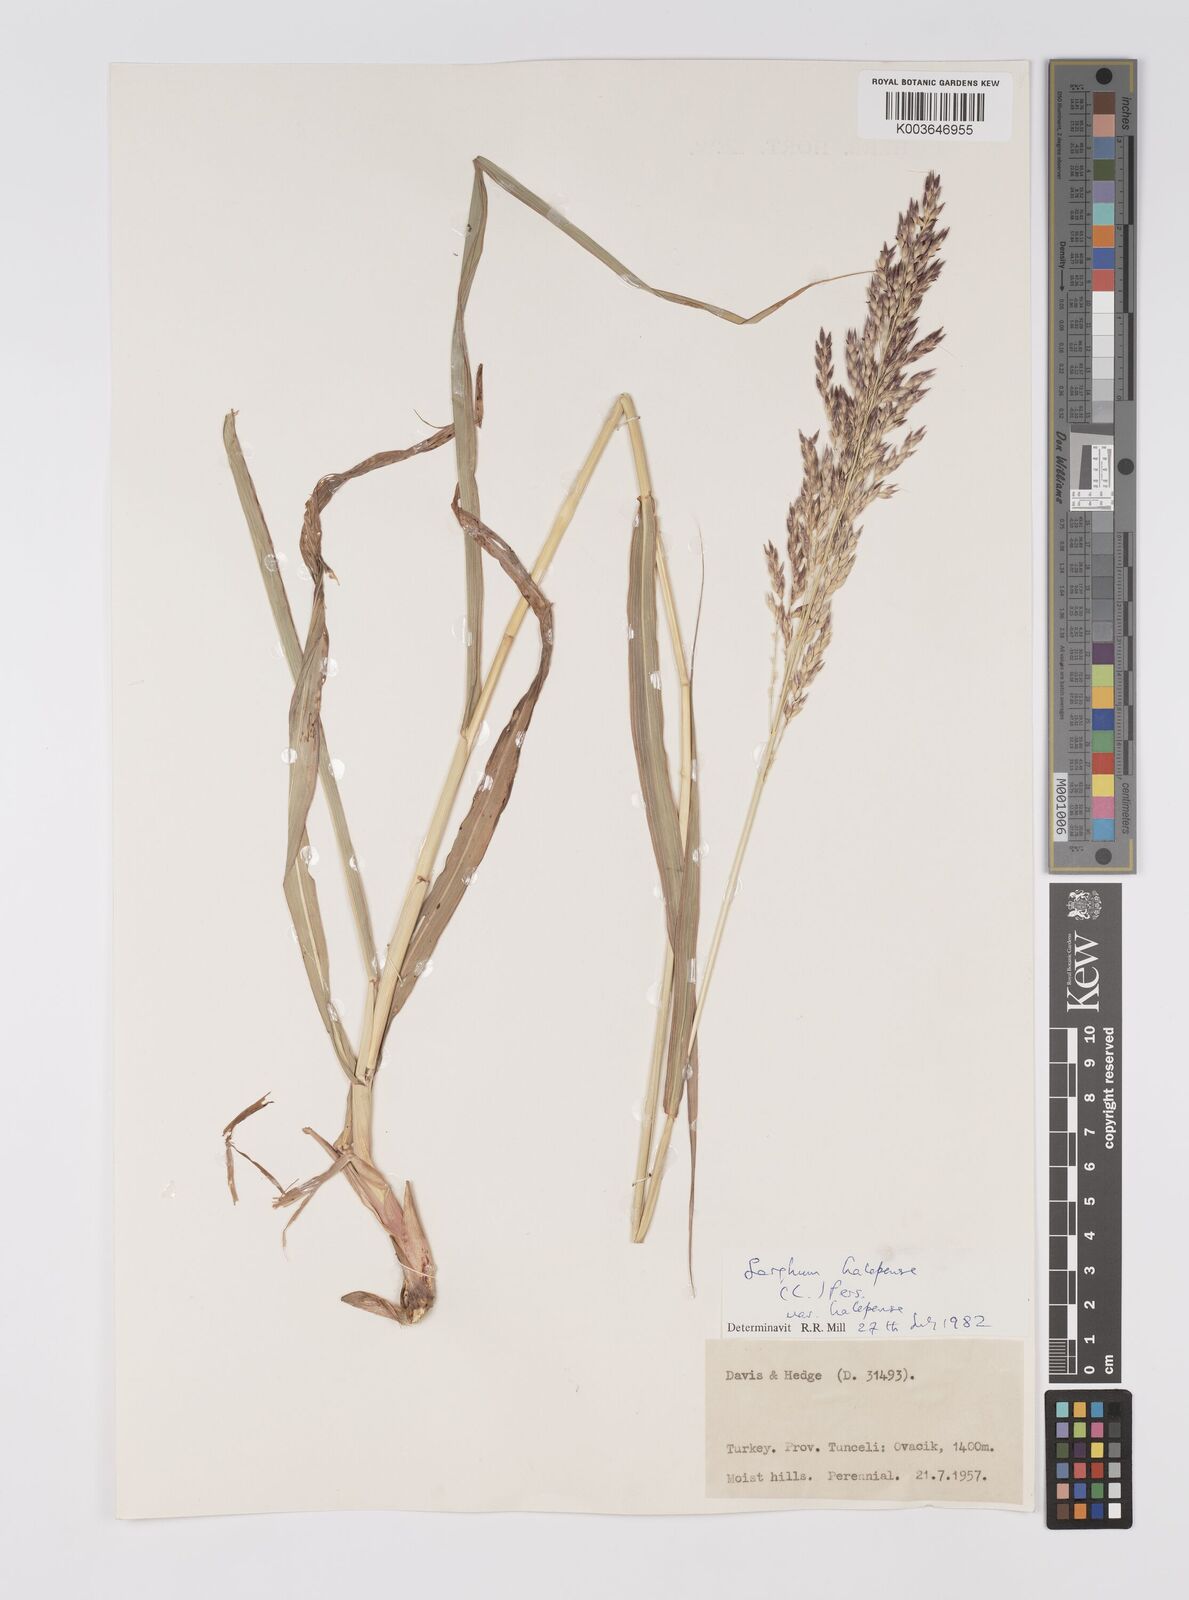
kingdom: Plantae
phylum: Tracheophyta
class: Liliopsida
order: Poales
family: Poaceae
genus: Sorghum
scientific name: Sorghum halepense
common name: Johnson-grass
